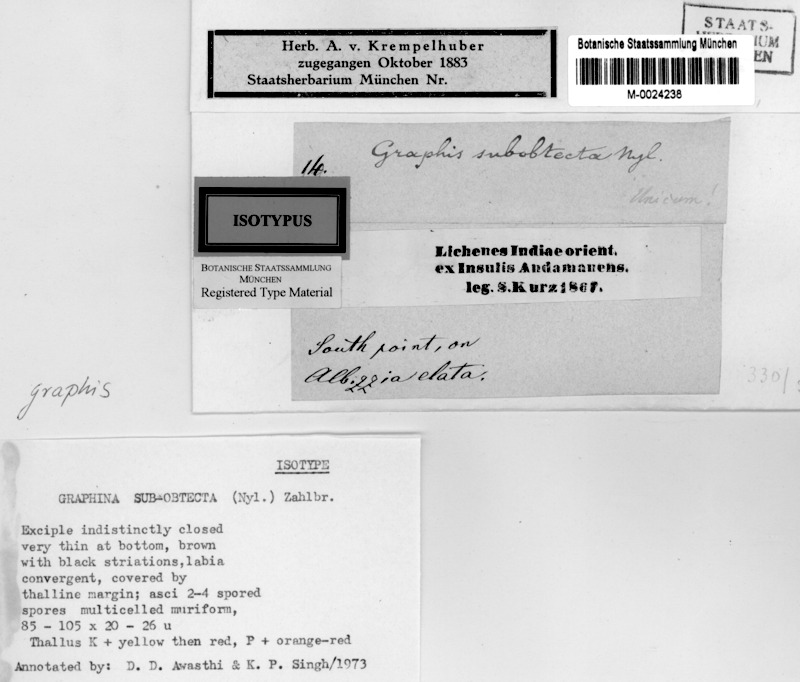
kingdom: Fungi
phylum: Ascomycota
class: Lecanoromycetes
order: Ostropales
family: Graphidaceae
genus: Graphina
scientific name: Graphina
